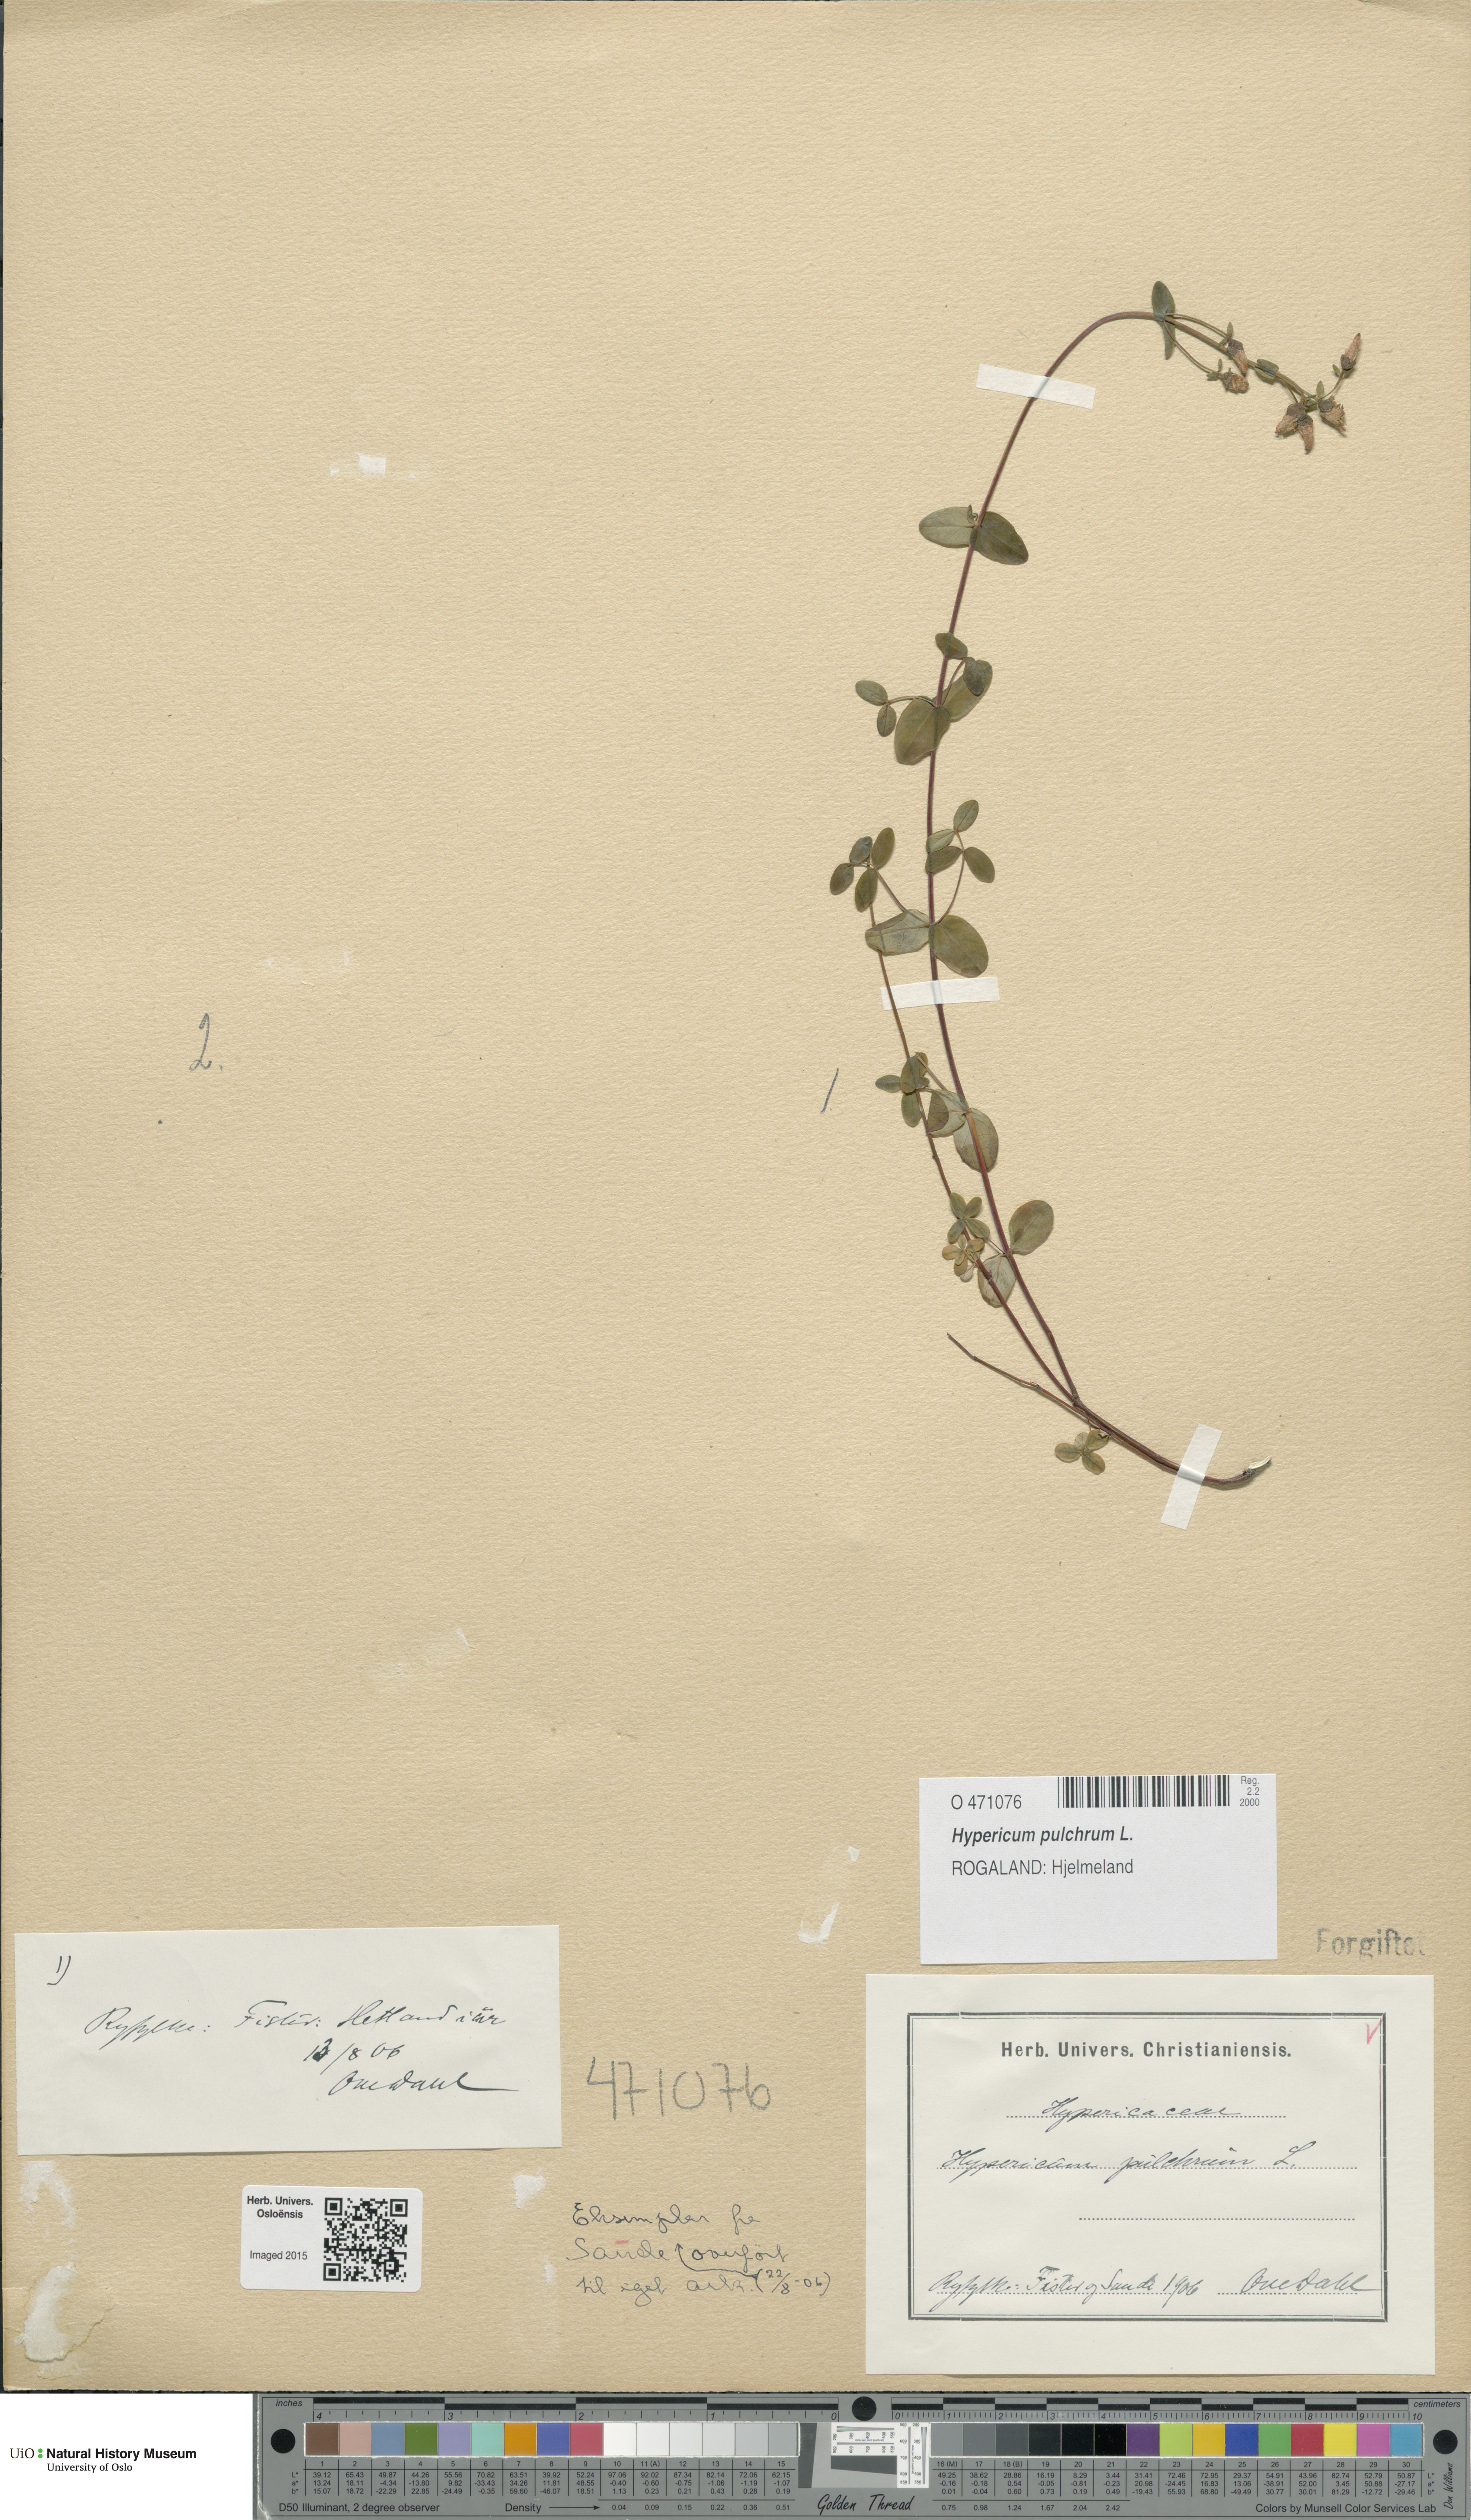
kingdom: Plantae
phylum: Tracheophyta
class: Magnoliopsida
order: Malpighiales
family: Hypericaceae
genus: Hypericum
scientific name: Hypericum pulchrum
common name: Slender st. john's-wort
